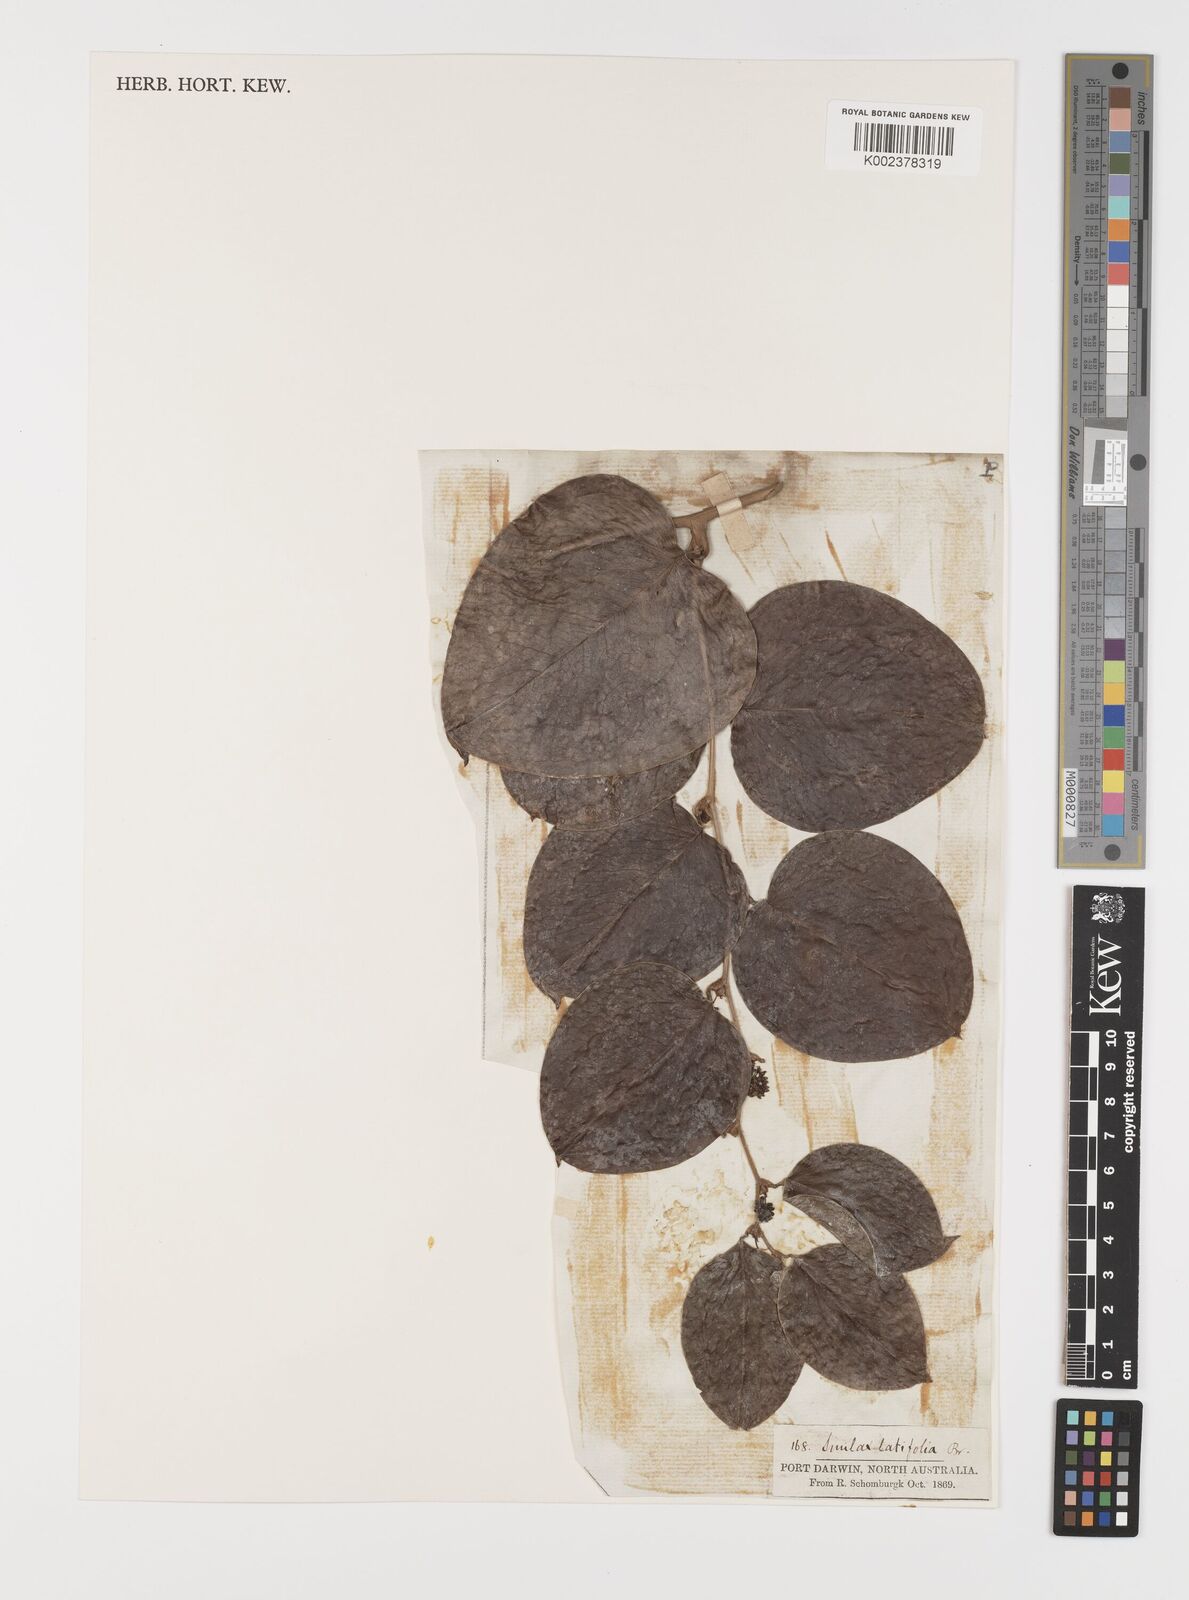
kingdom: Plantae
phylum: Tracheophyta
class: Liliopsida
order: Liliales
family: Smilacaceae
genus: Smilax
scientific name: Smilax australis
